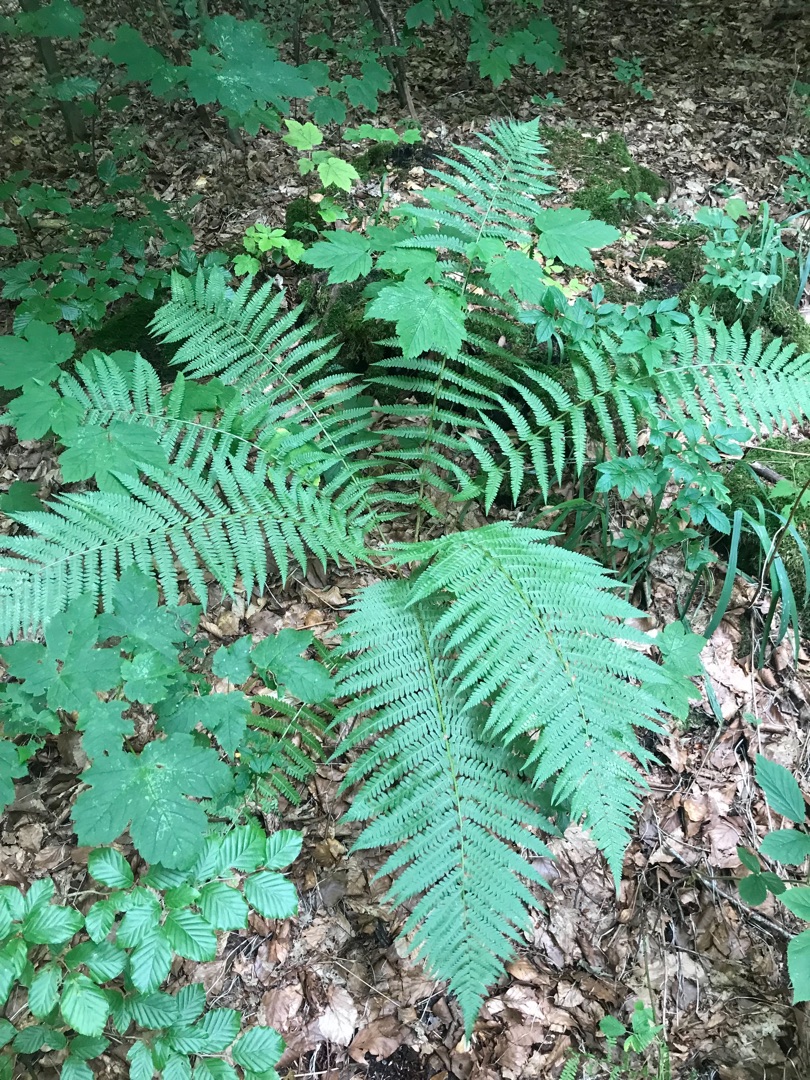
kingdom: Plantae
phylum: Tracheophyta
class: Polypodiopsida
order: Polypodiales
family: Athyriaceae
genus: Athyrium
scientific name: Athyrium filix-femina
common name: Fjerbregne
